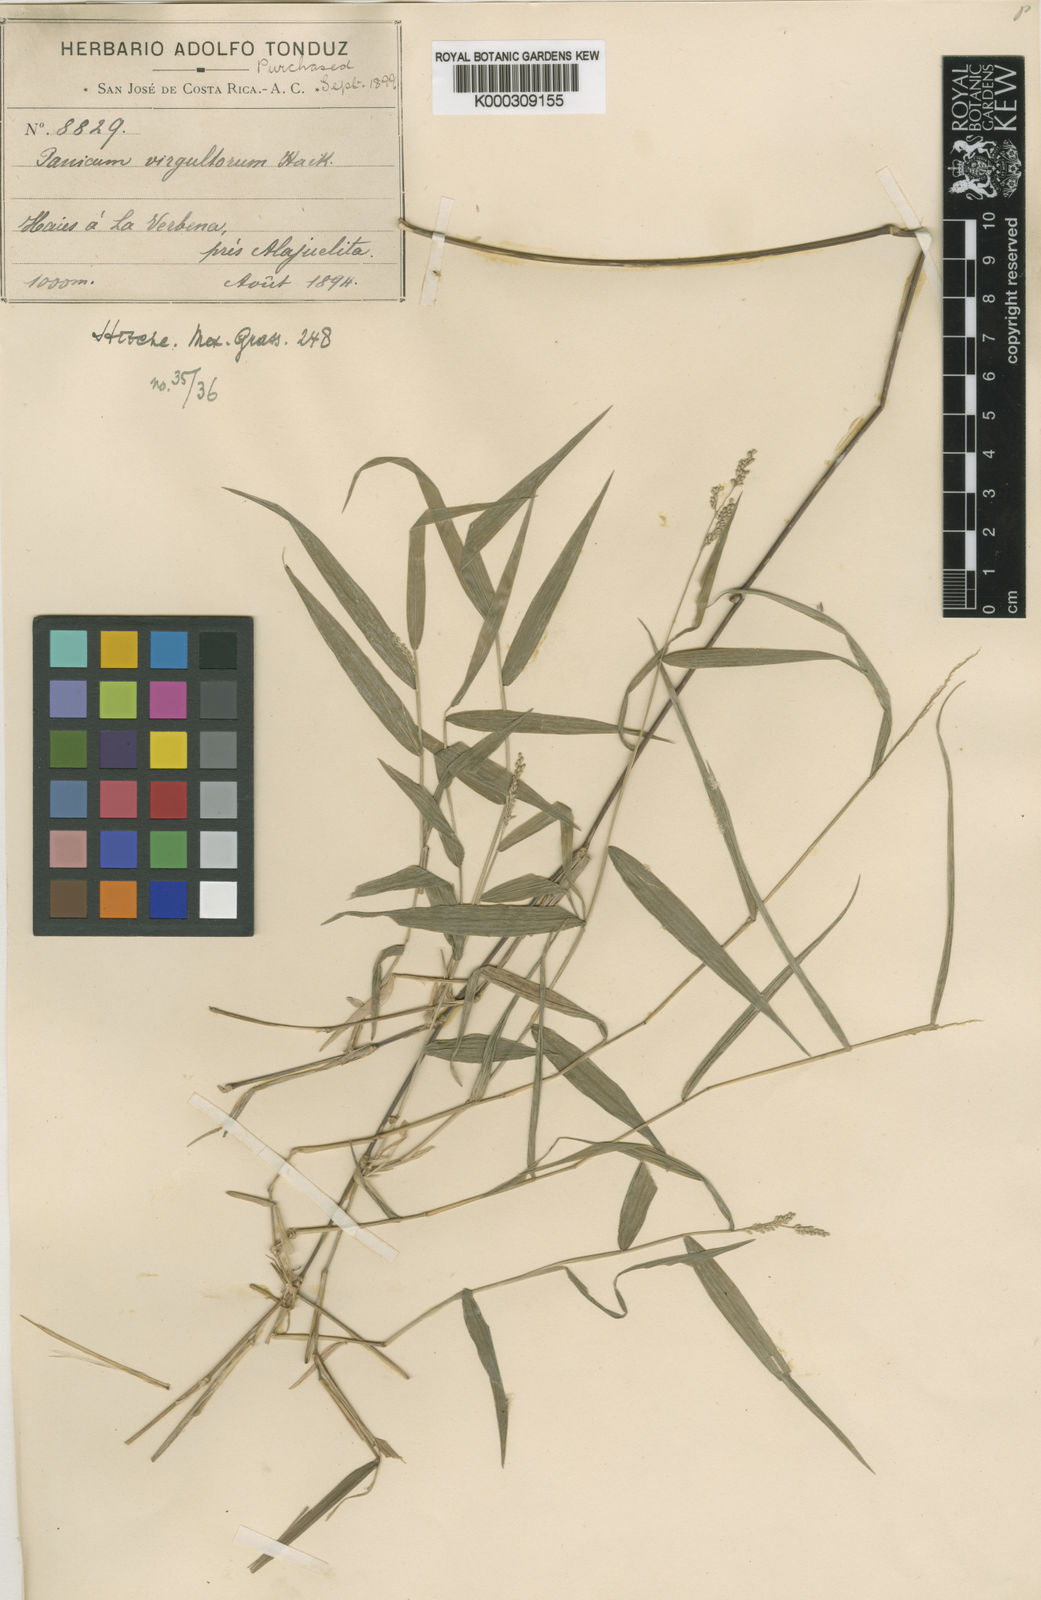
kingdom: Plantae
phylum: Tracheophyta
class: Liliopsida
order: Poales
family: Poaceae
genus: Morronea
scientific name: Morronea arundinariae
